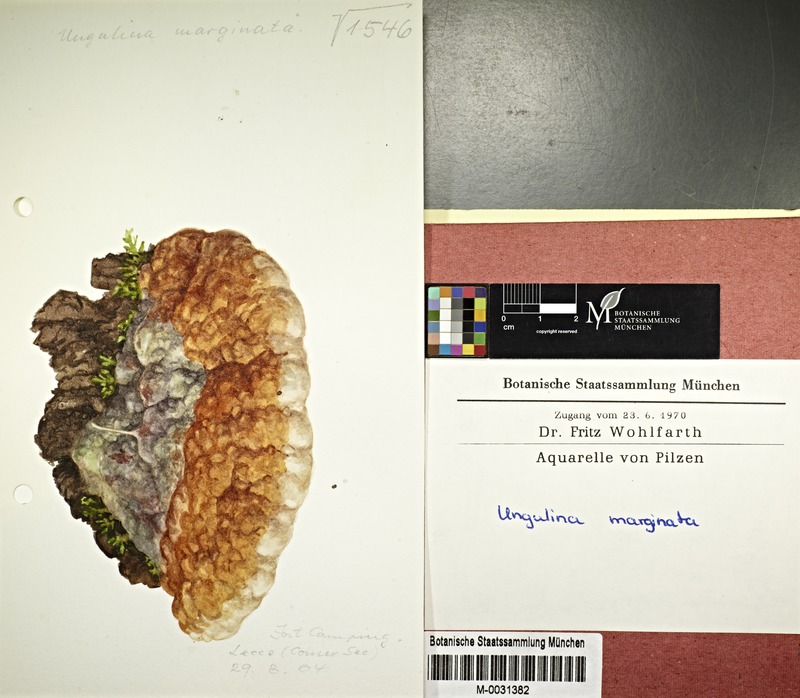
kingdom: Fungi
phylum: Basidiomycota
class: Agaricomycetes
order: Polyporales
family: Fomitopsidaceae
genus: Fomitopsis
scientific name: Fomitopsis pinicola
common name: Red-belted bracket
